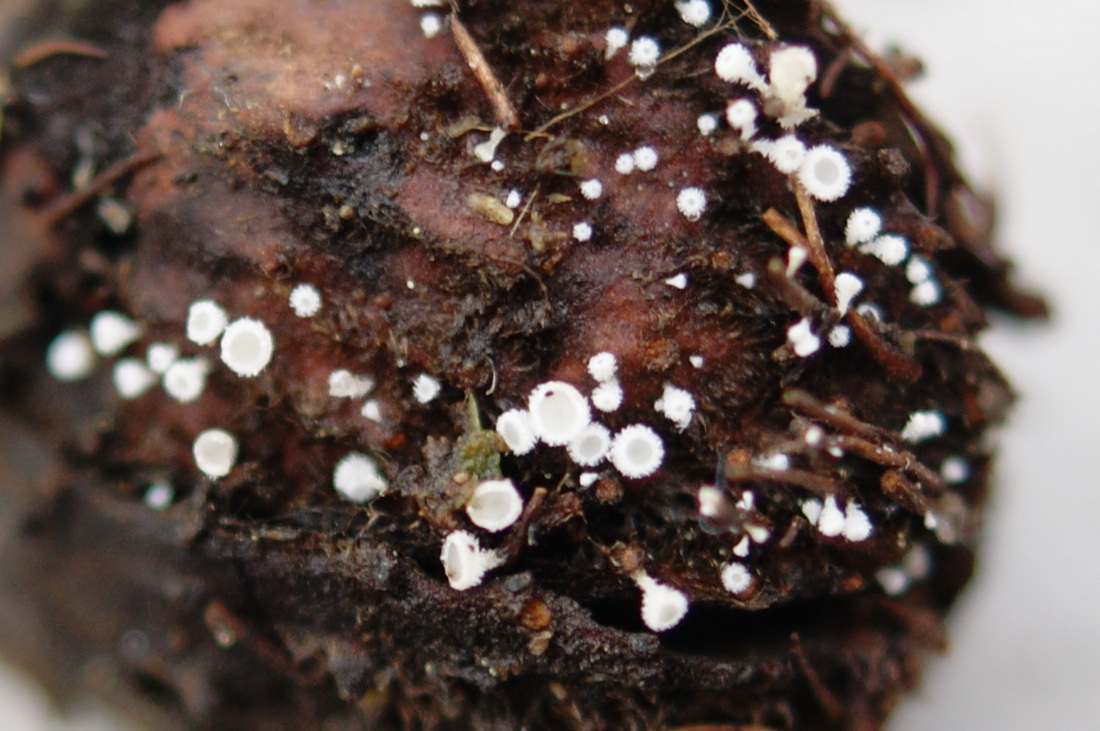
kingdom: Fungi
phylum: Ascomycota
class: Leotiomycetes
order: Helotiales
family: Lachnaceae
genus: Lachnum
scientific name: Lachnum virgineum
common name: jomfru-frynseskive
